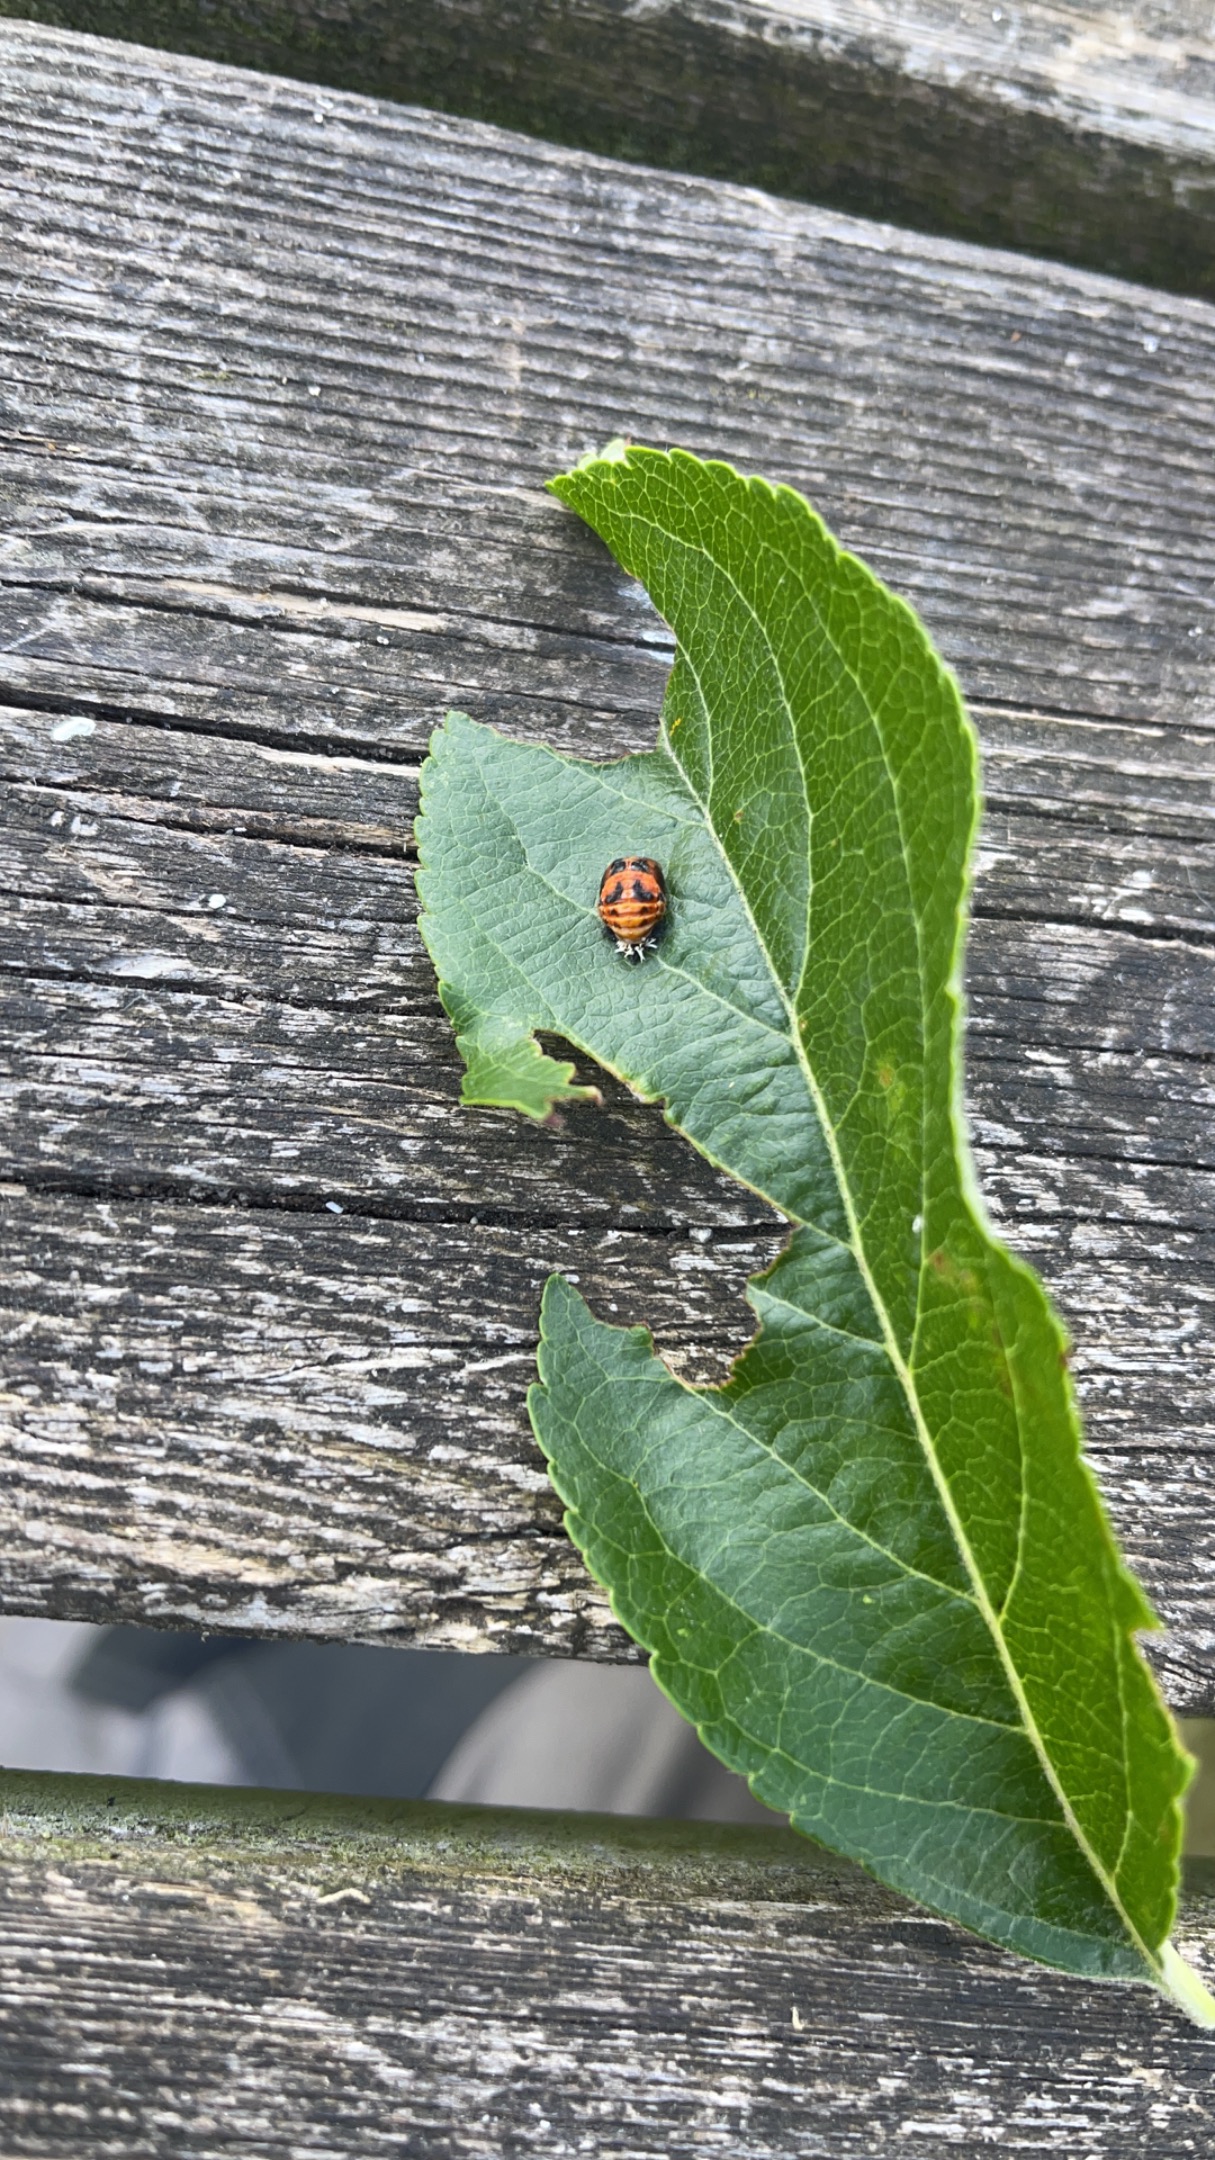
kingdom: Animalia
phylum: Arthropoda
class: Insecta
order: Coleoptera
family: Coccinellidae
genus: Harmonia
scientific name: Harmonia axyridis
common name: Harlekinmariehøne
